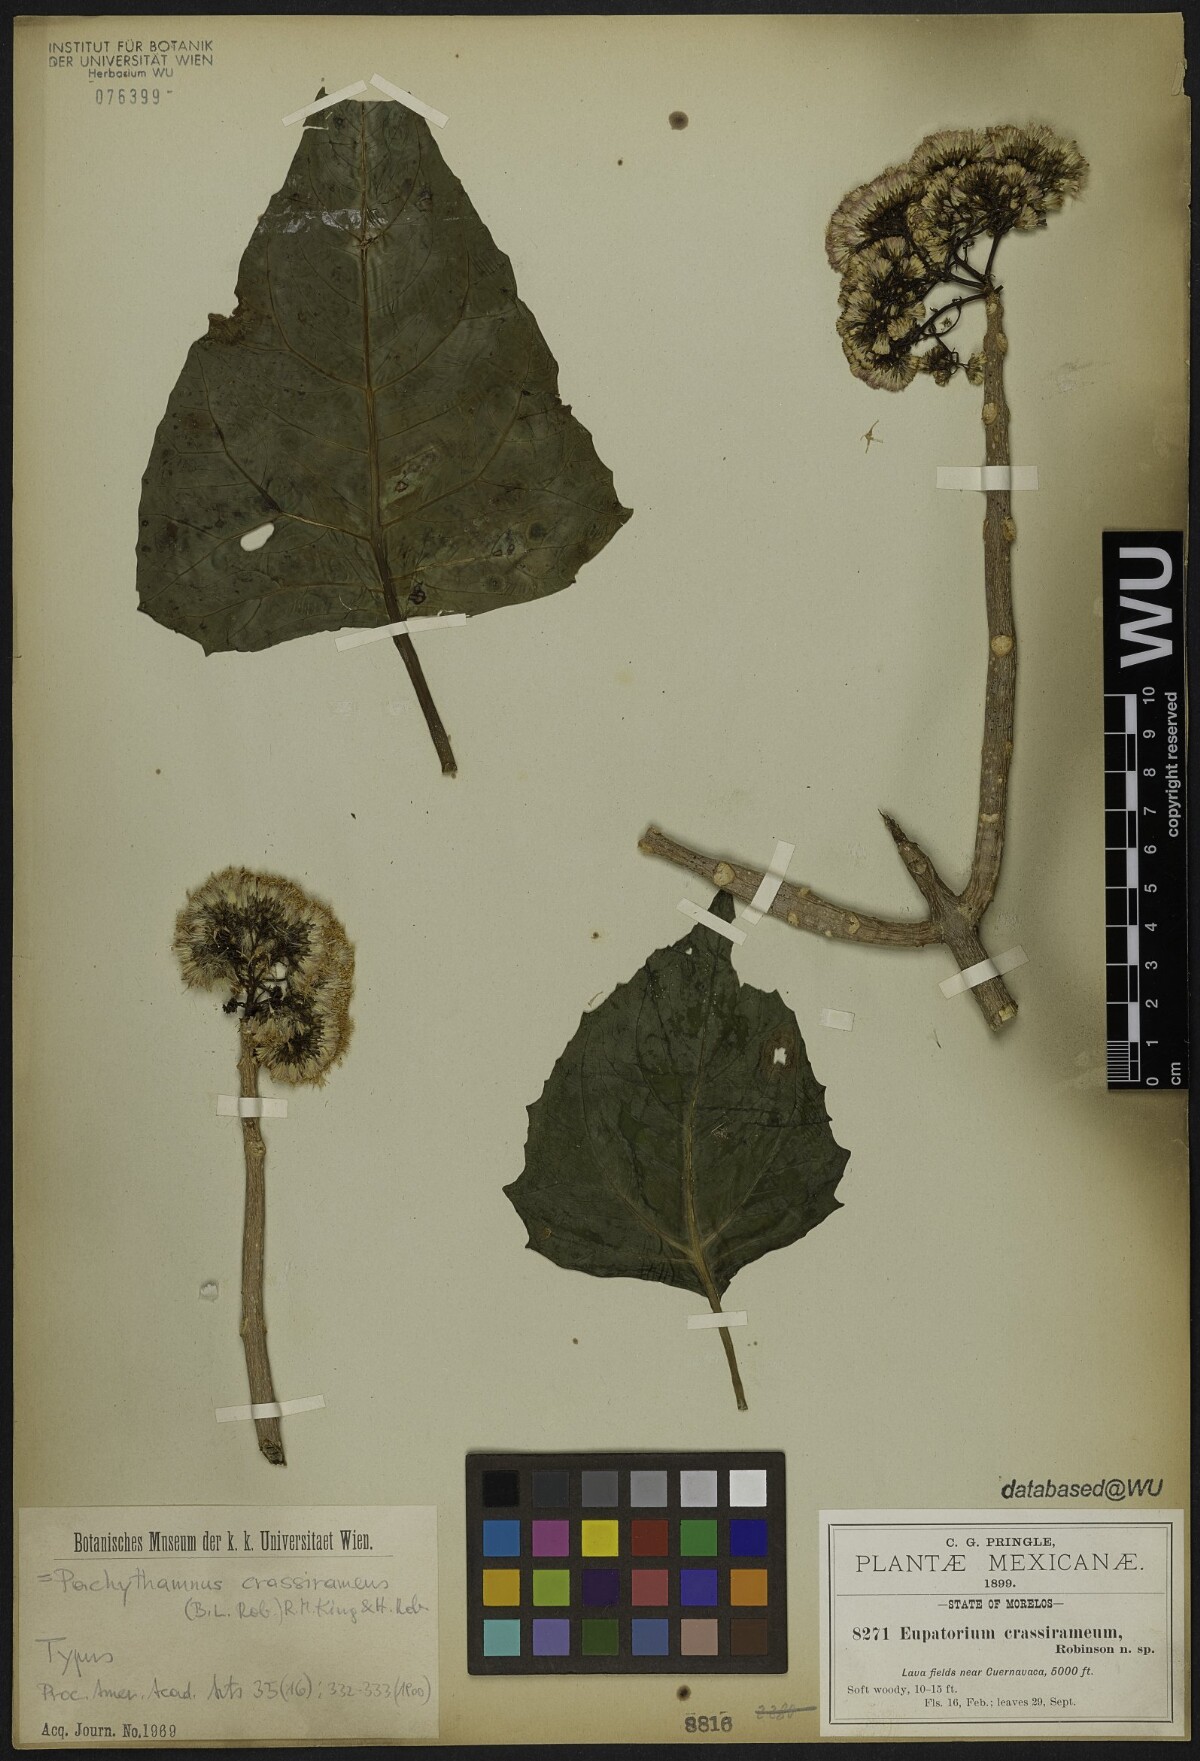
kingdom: Plantae
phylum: Tracheophyta
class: Magnoliopsida
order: Asterales
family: Asteraceae
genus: Ageratina
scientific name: Ageratina crassiramea
